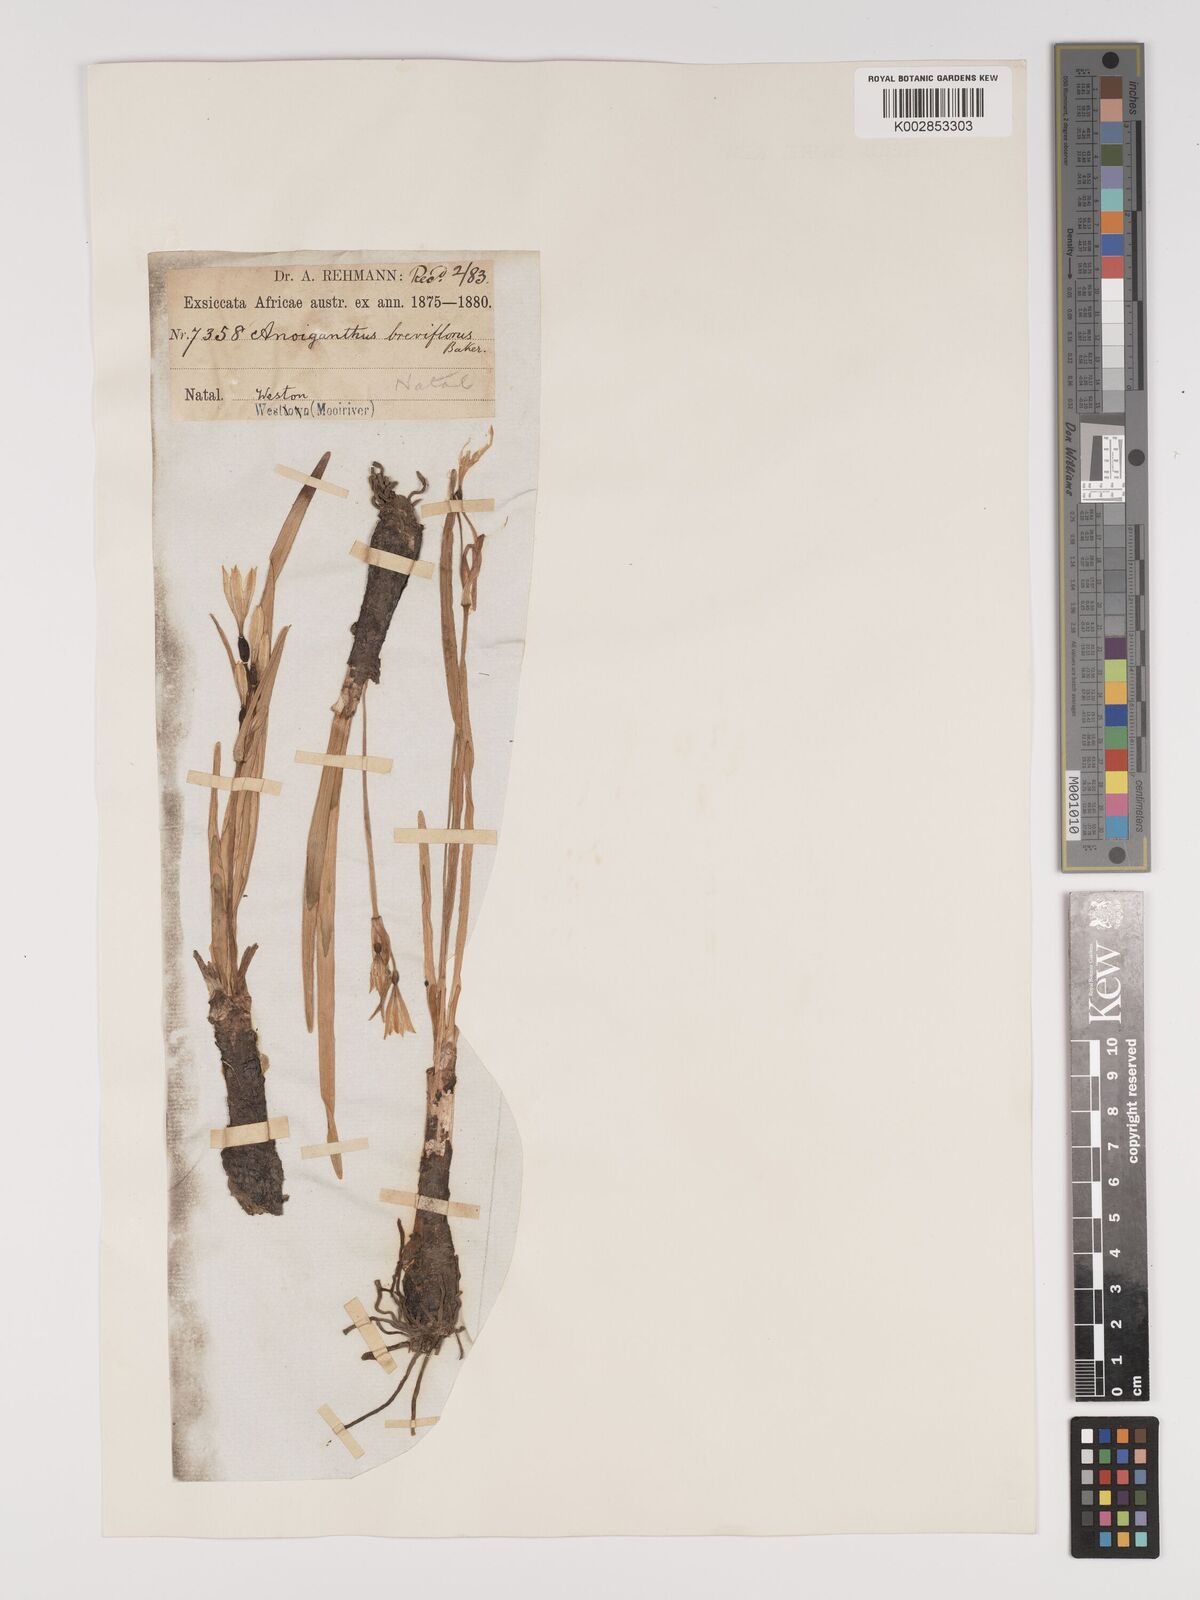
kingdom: Plantae
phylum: Tracheophyta
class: Liliopsida
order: Asparagales
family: Amaryllidaceae
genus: Cyrtanthus
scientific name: Cyrtanthus breviflorus
